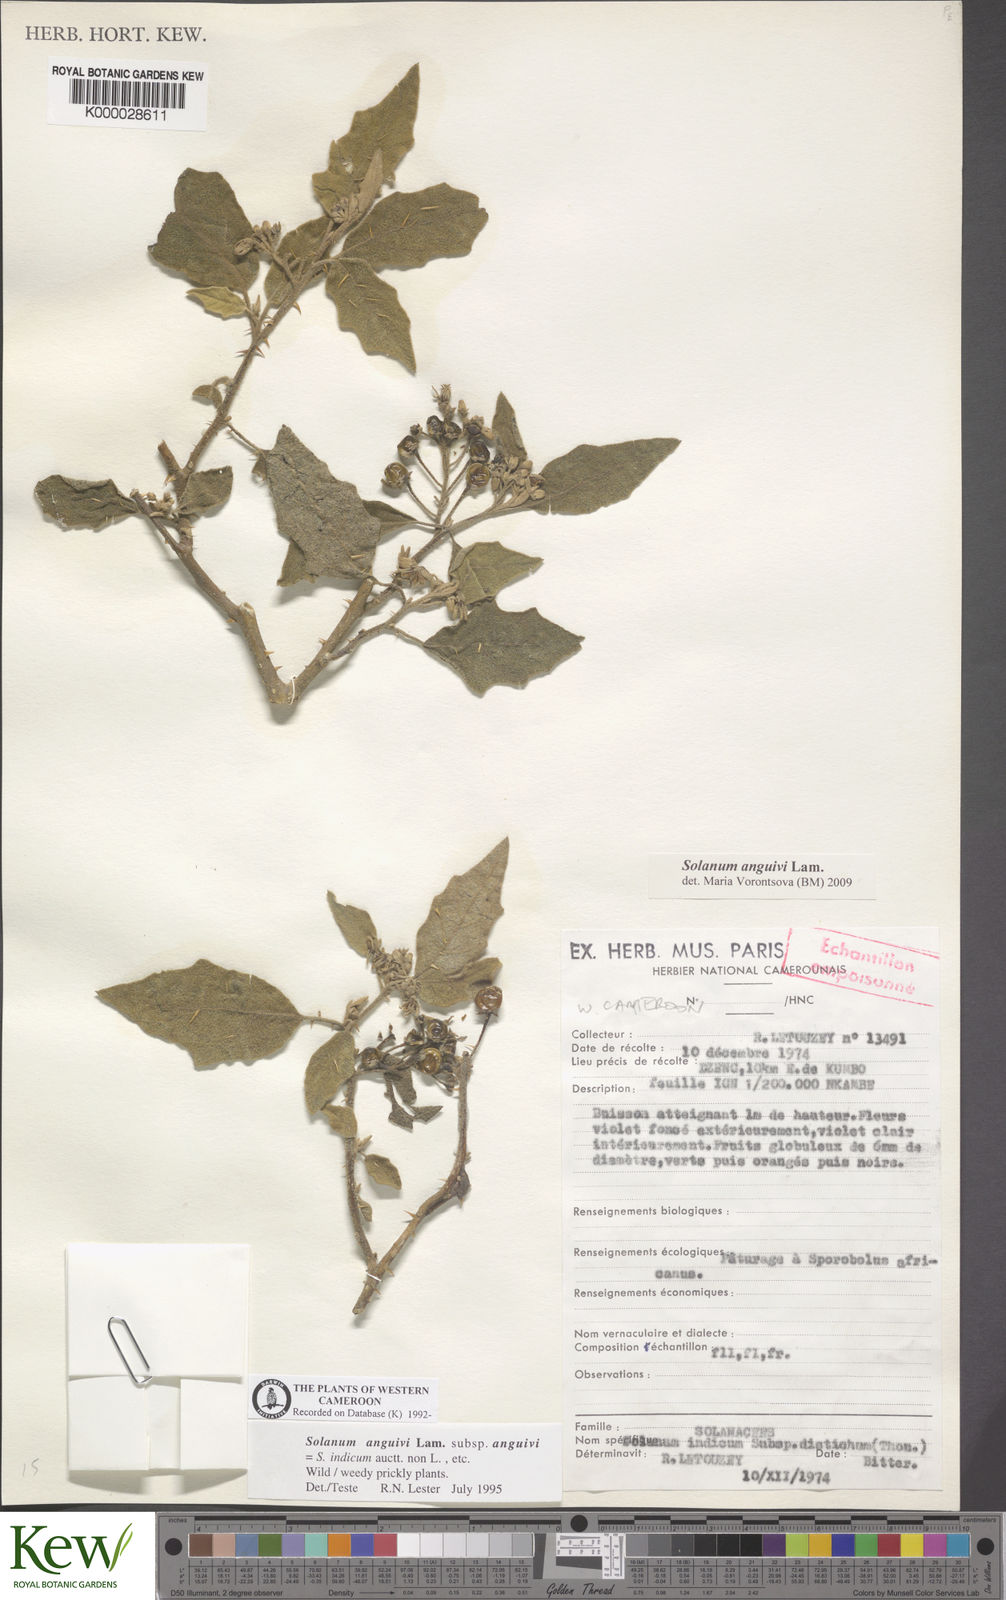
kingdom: Plantae
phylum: Tracheophyta
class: Magnoliopsida
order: Solanales
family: Solanaceae
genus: Solanum
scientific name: Solanum anguivi
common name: Forest bitterberry
